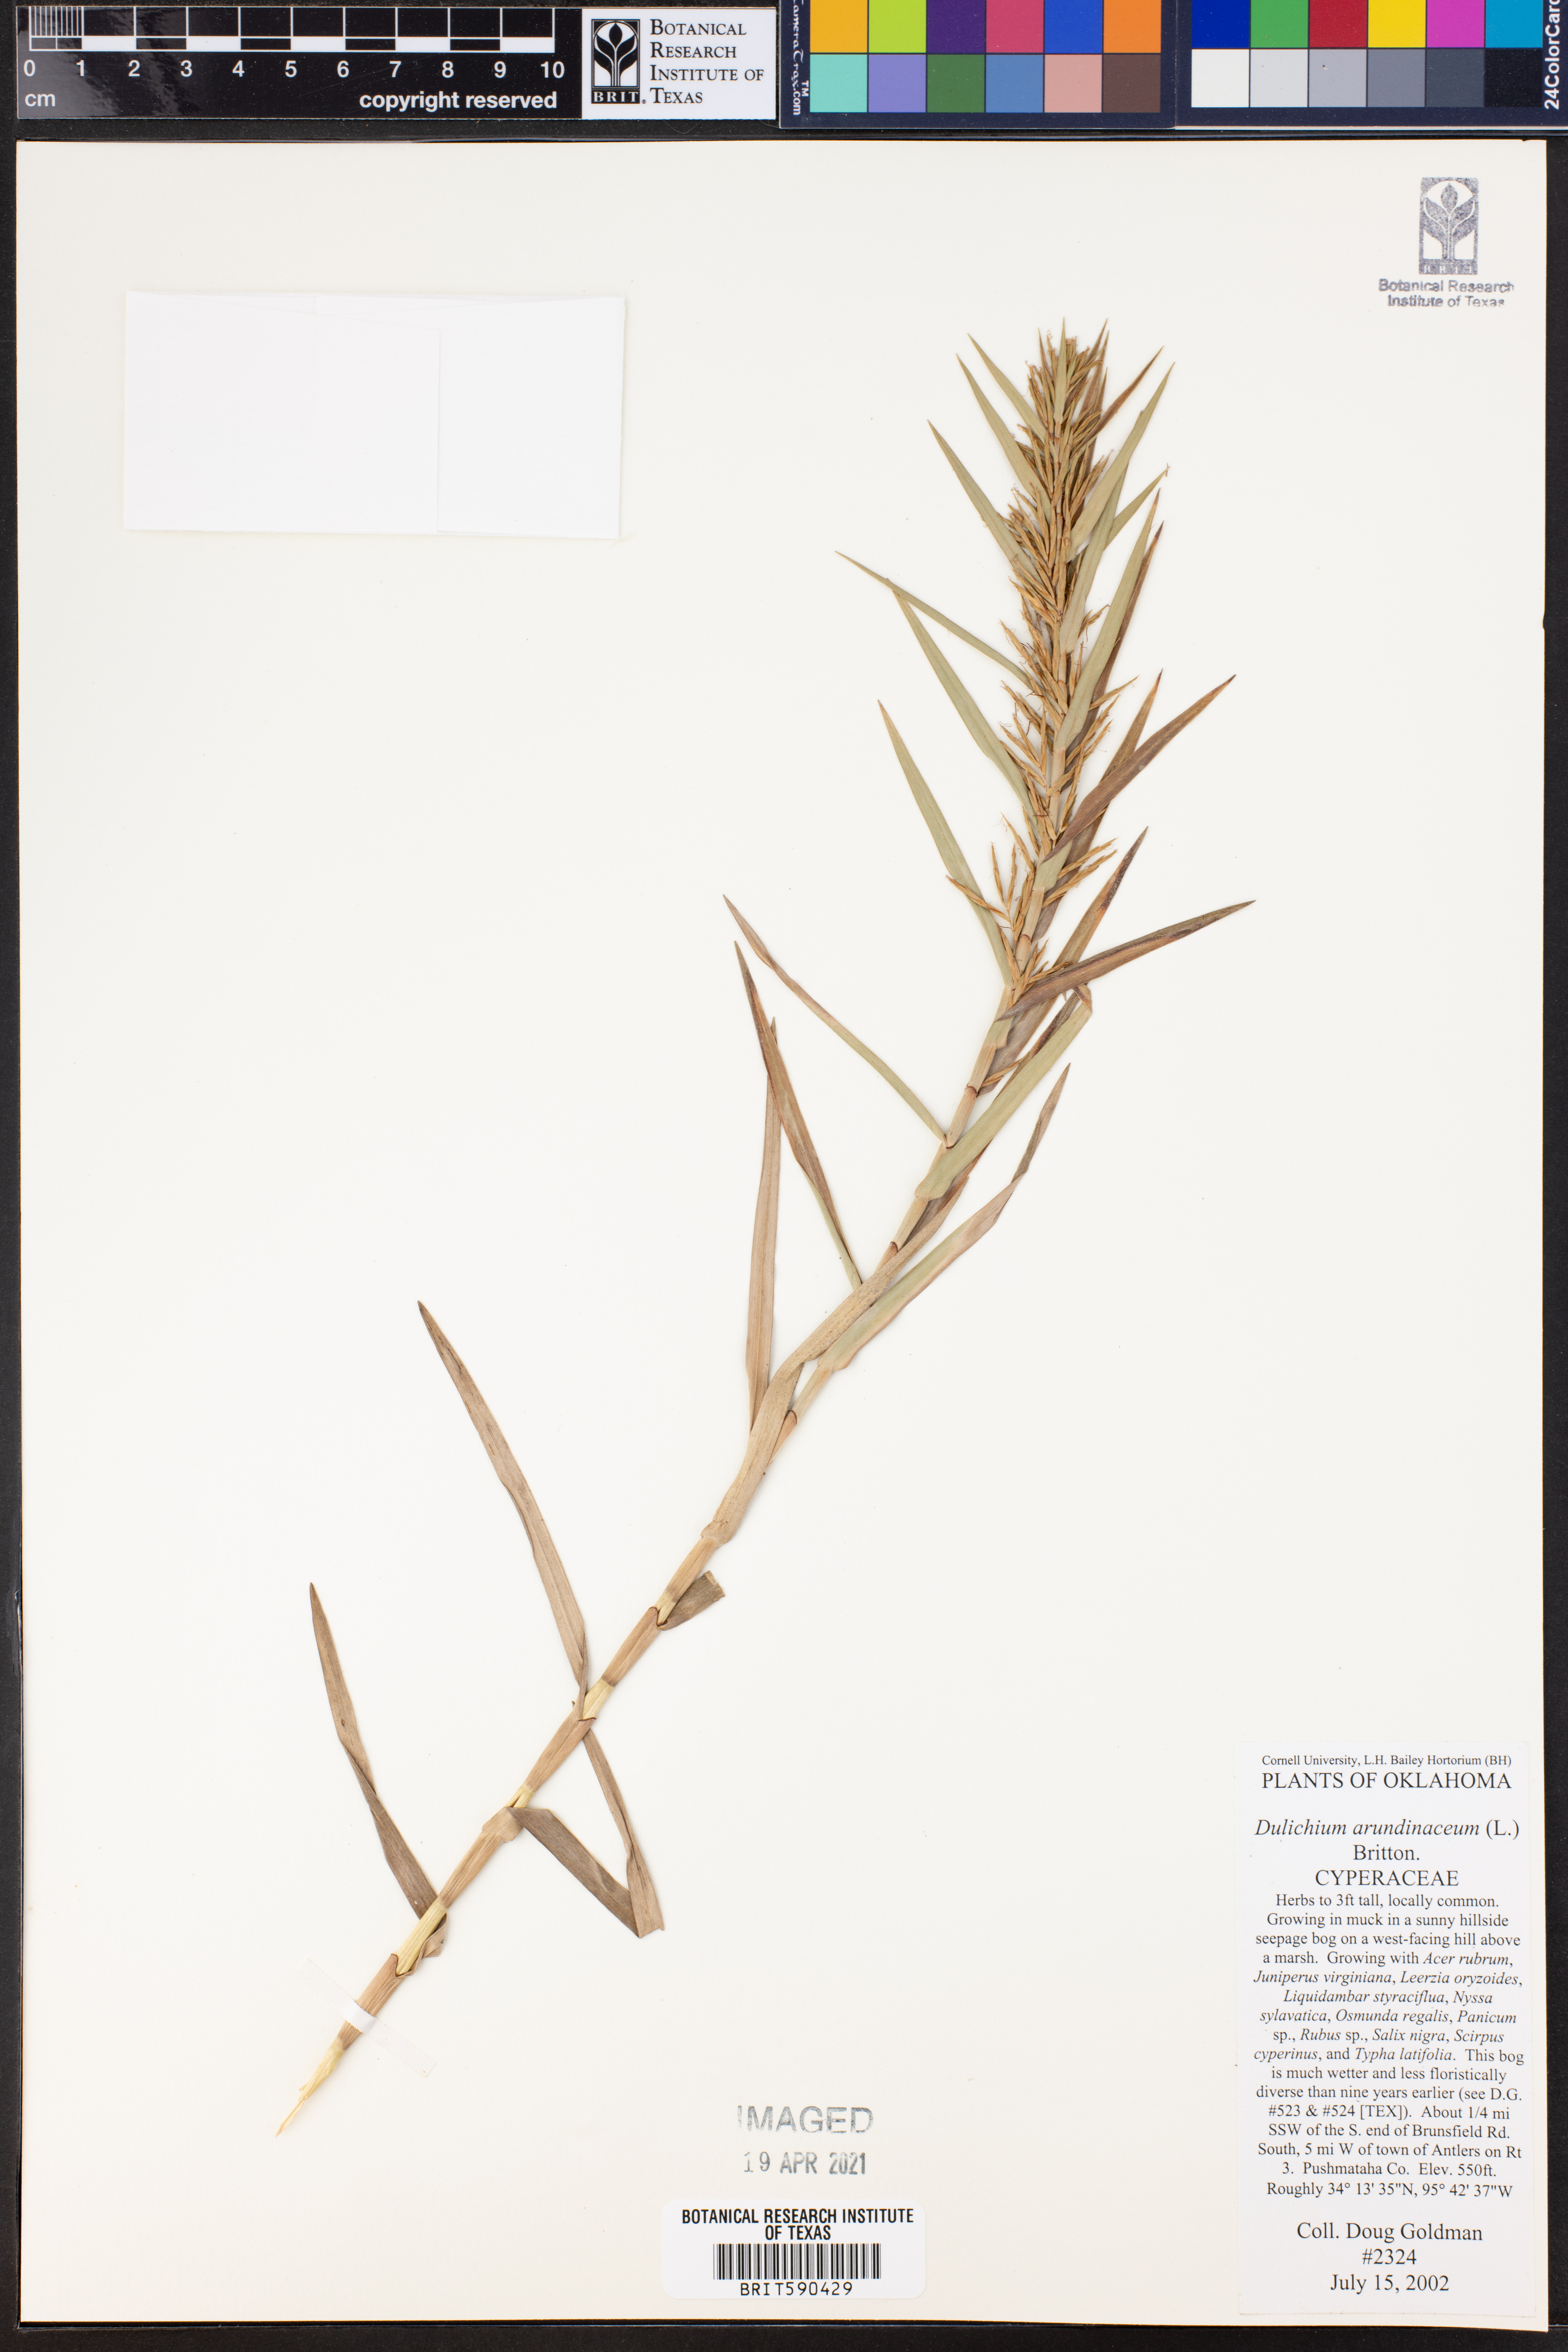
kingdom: Plantae
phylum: Tracheophyta
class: Liliopsida
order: Poales
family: Cyperaceae
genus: Dulichium
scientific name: Dulichium arundinaceum
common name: Three-way sedge
